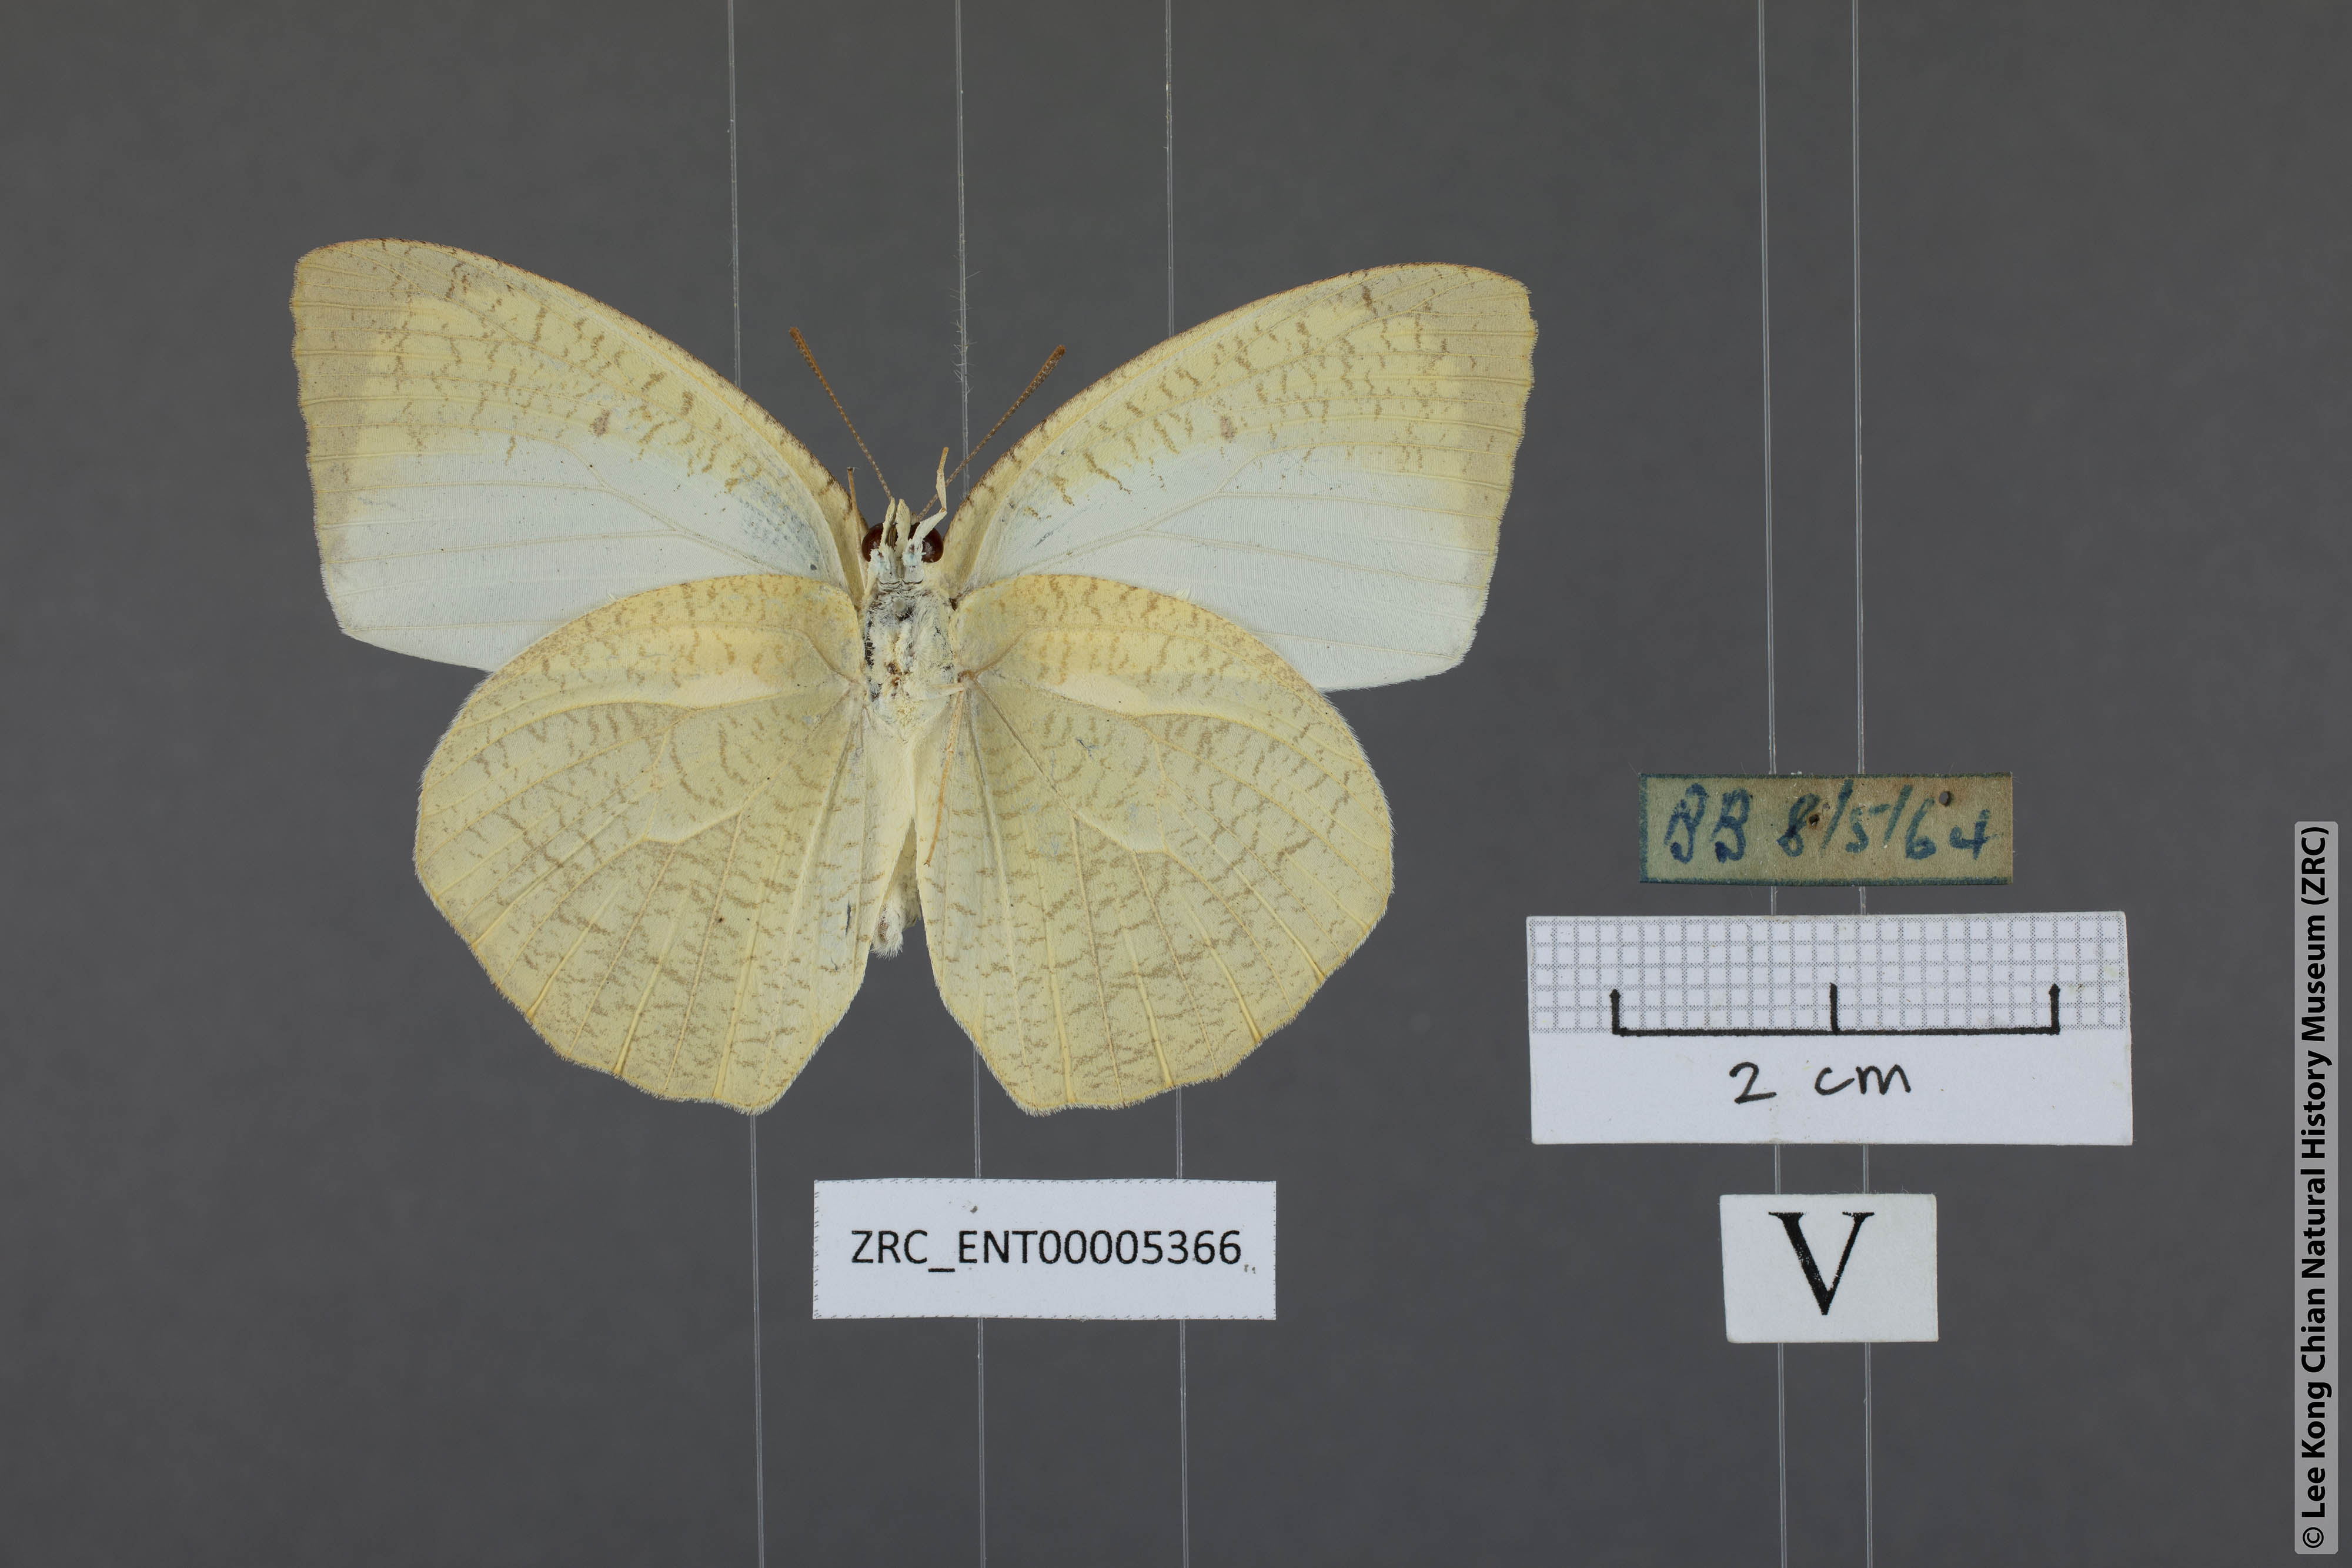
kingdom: Animalia
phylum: Arthropoda
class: Insecta
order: Lepidoptera
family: Pieridae
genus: Catopsilia
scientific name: Catopsilia pyranthe
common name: Mottled emigrant
